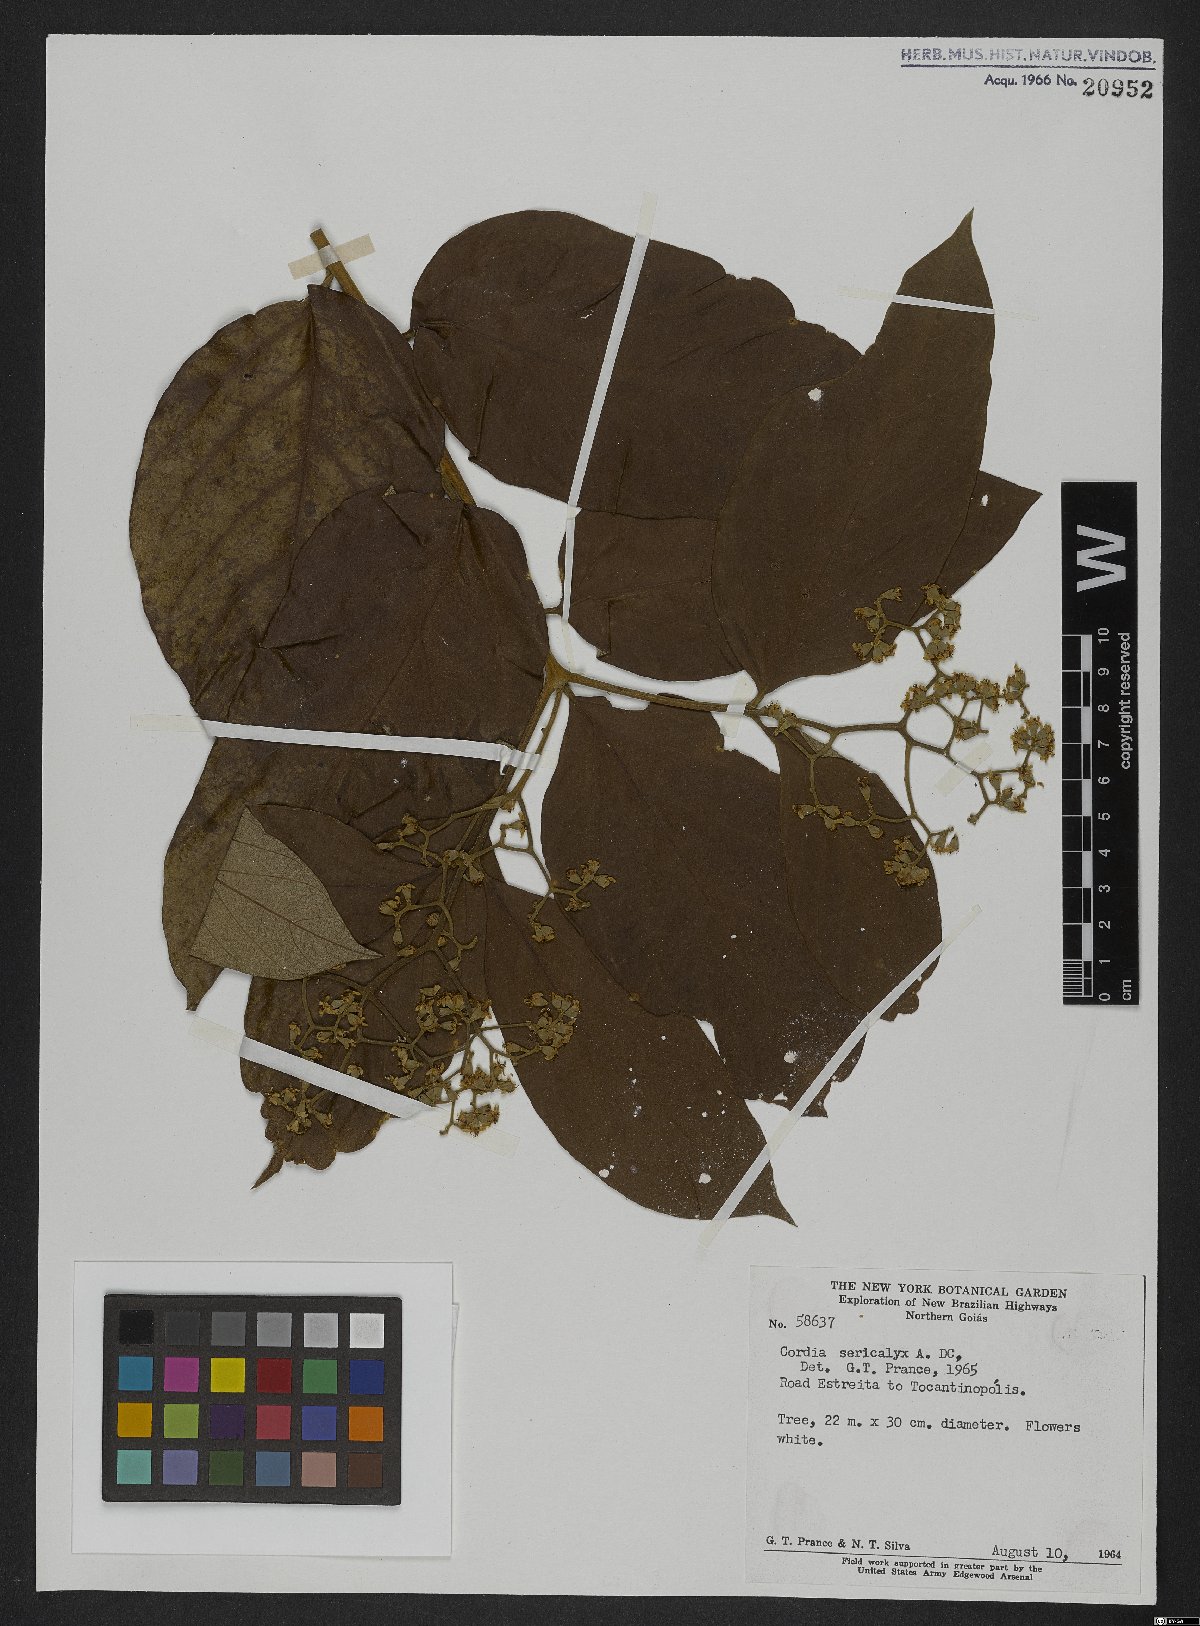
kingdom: Plantae
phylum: Tracheophyta
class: Magnoliopsida
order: Boraginales
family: Cordiaceae
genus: Cordia
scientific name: Cordia sericicalyx
